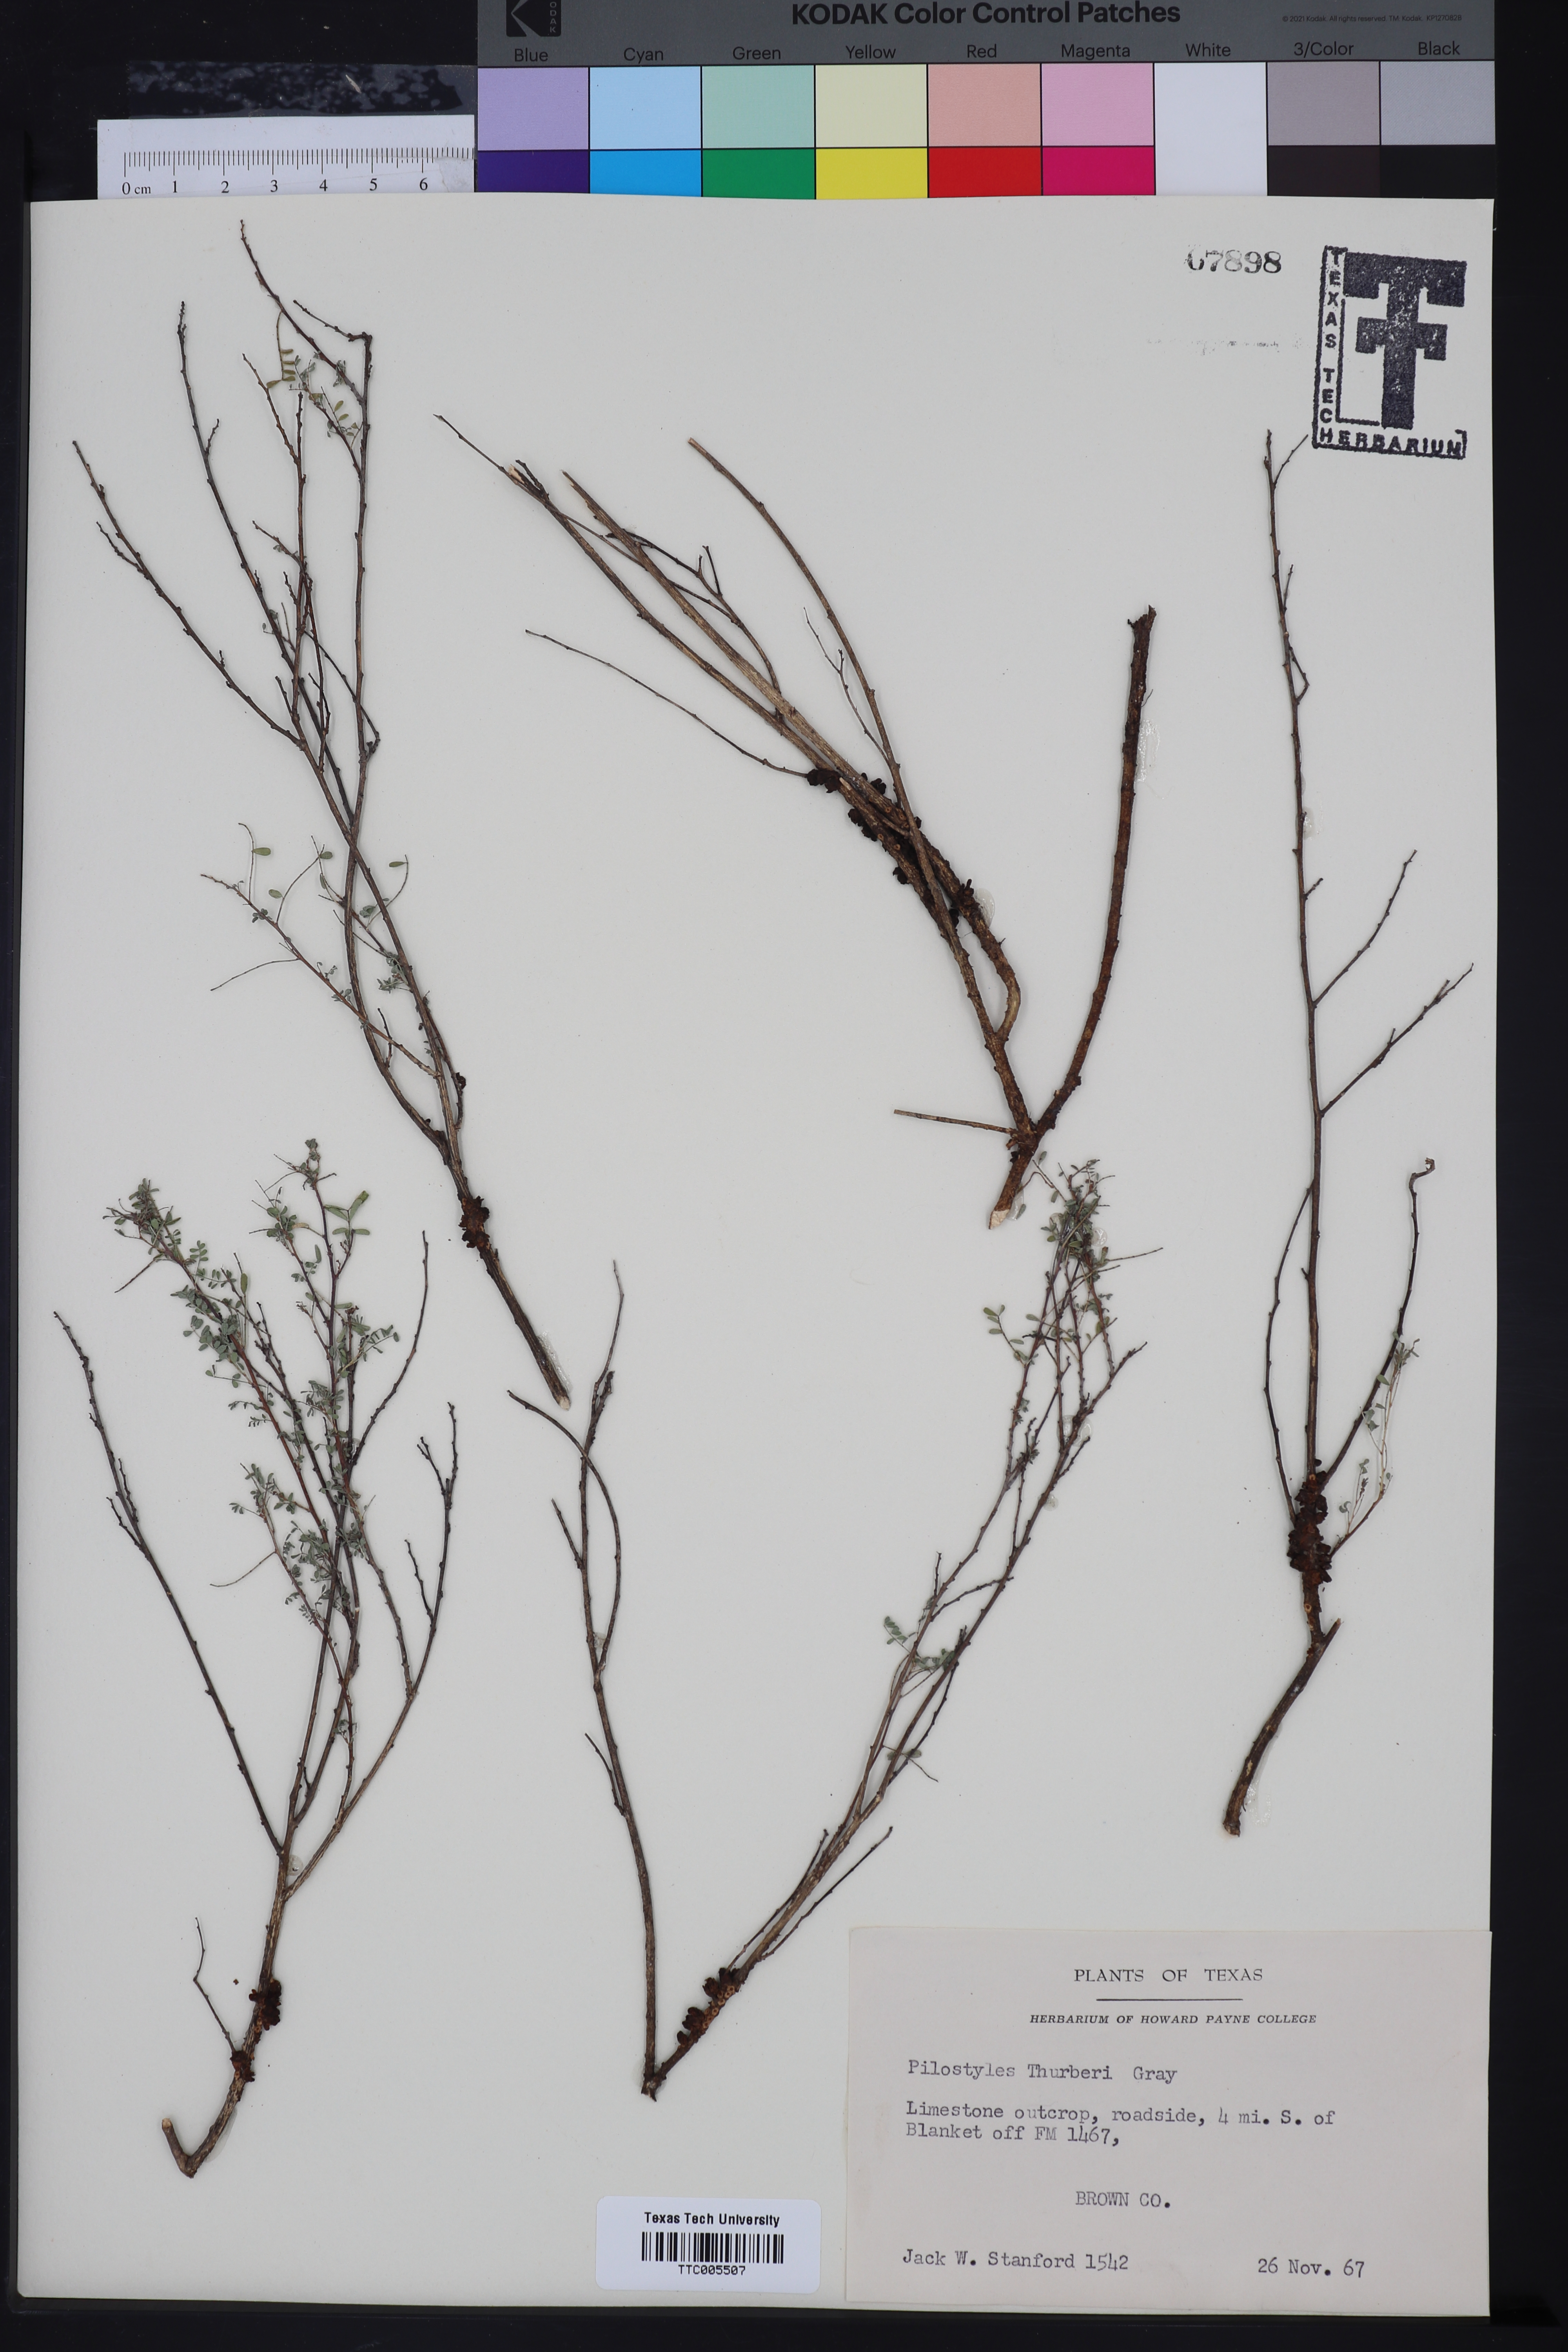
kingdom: Plantae
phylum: Tracheophyta
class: Magnoliopsida
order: Cucurbitales
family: Apodanthaceae
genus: Pilostyles
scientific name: Pilostyles thurberi
